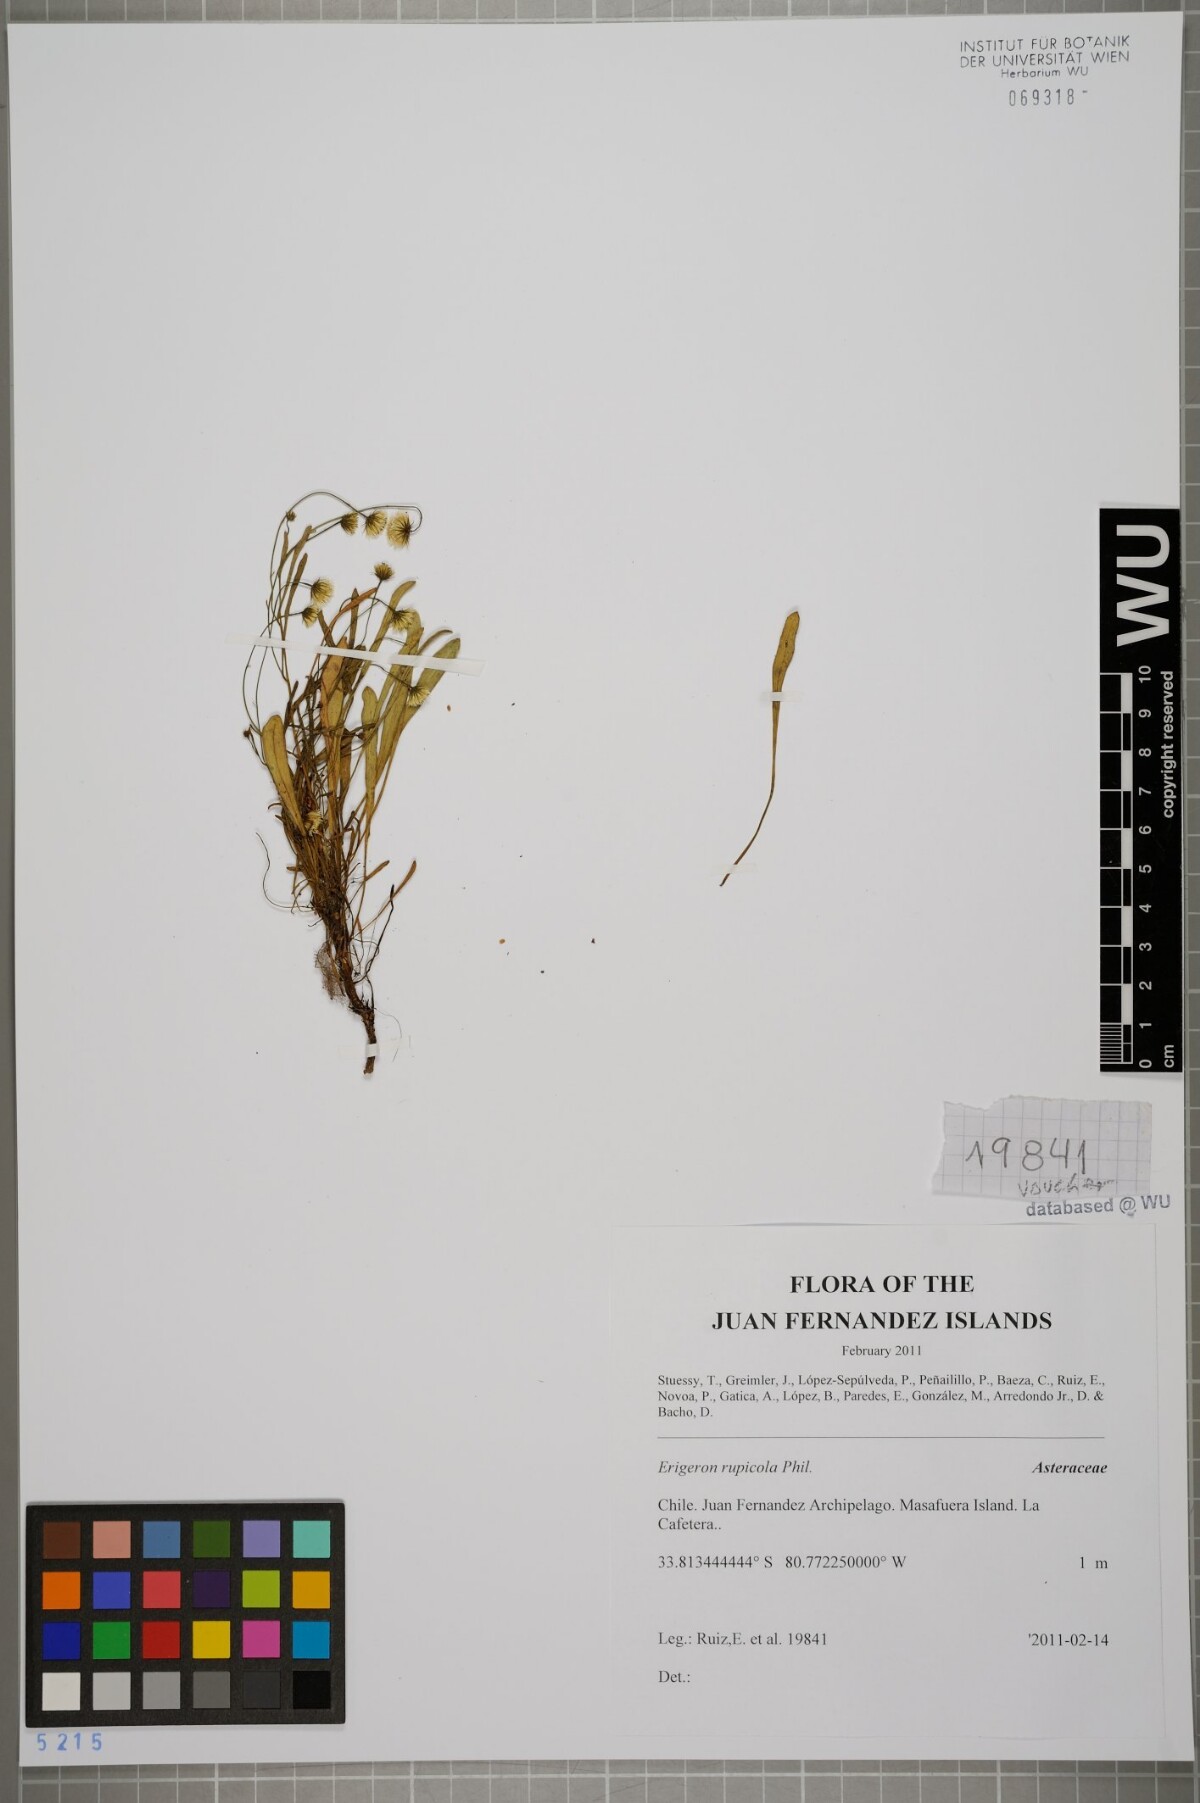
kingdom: Plantae
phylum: Tracheophyta
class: Magnoliopsida
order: Asterales
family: Asteraceae
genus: Erigeron
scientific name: Erigeron rupicola
